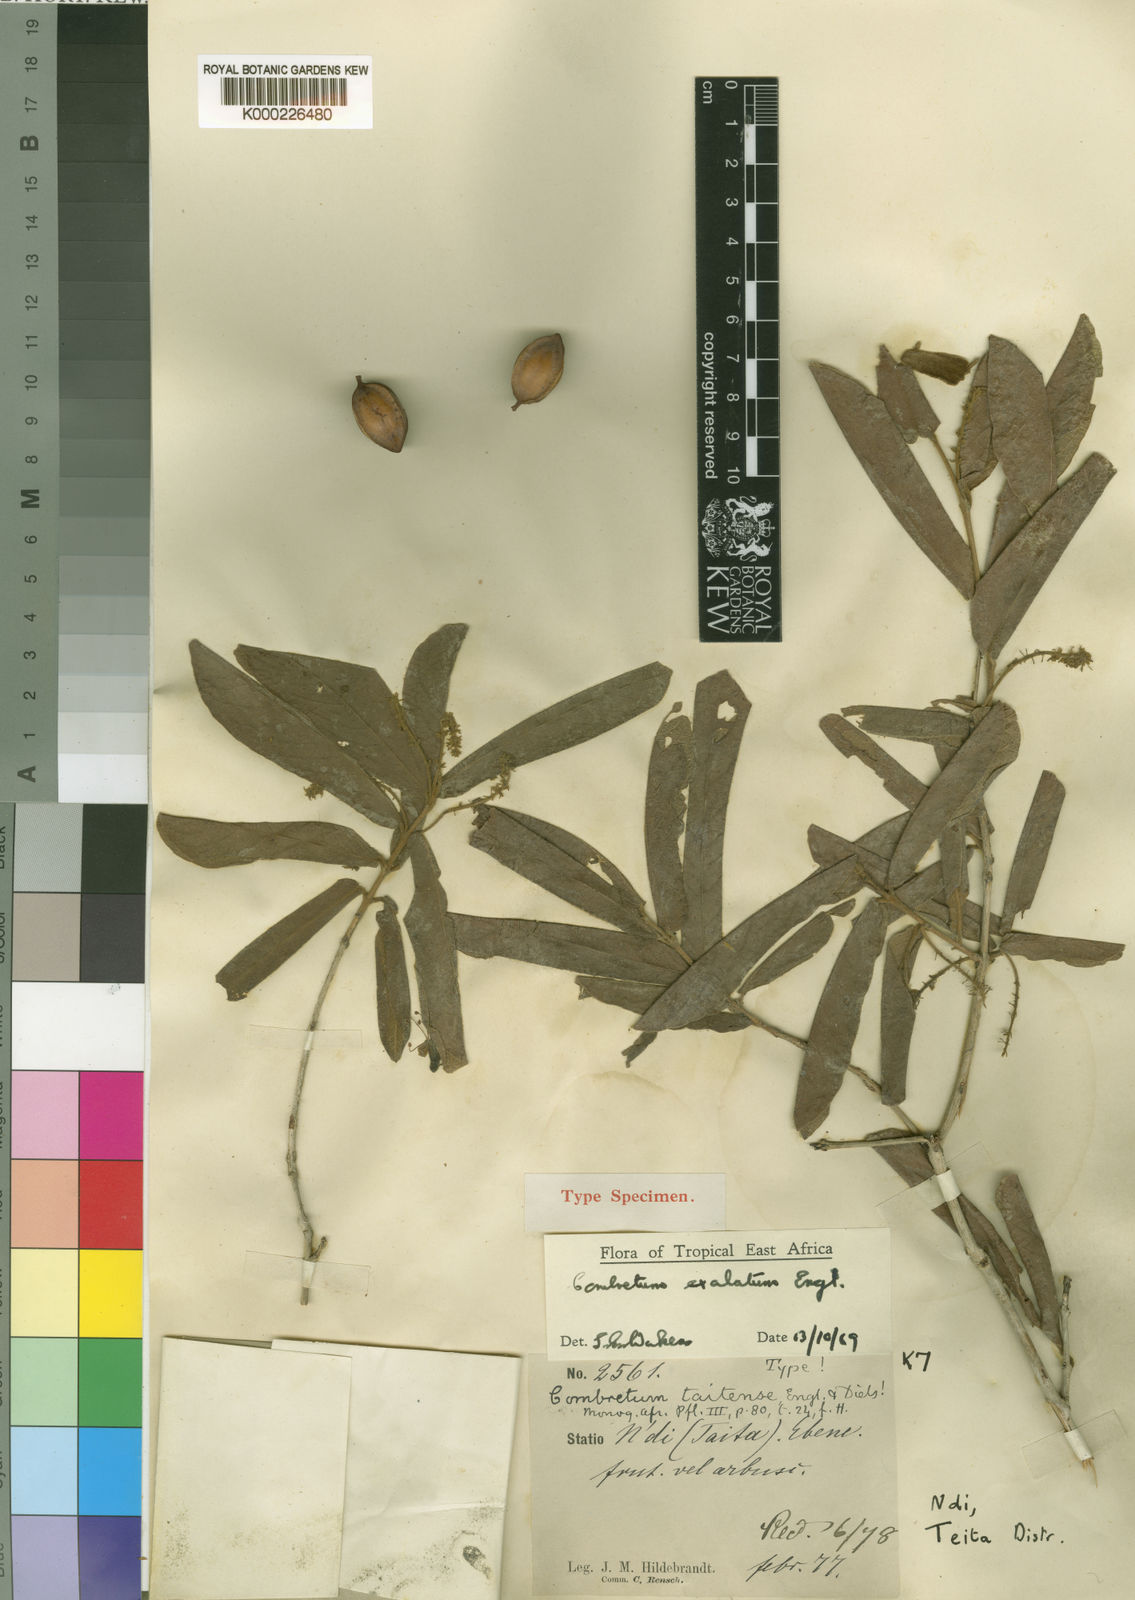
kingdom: Plantae
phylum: Tracheophyta
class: Magnoliopsida
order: Myrtales
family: Combretaceae
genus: Combretum
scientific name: Combretum exalatum
